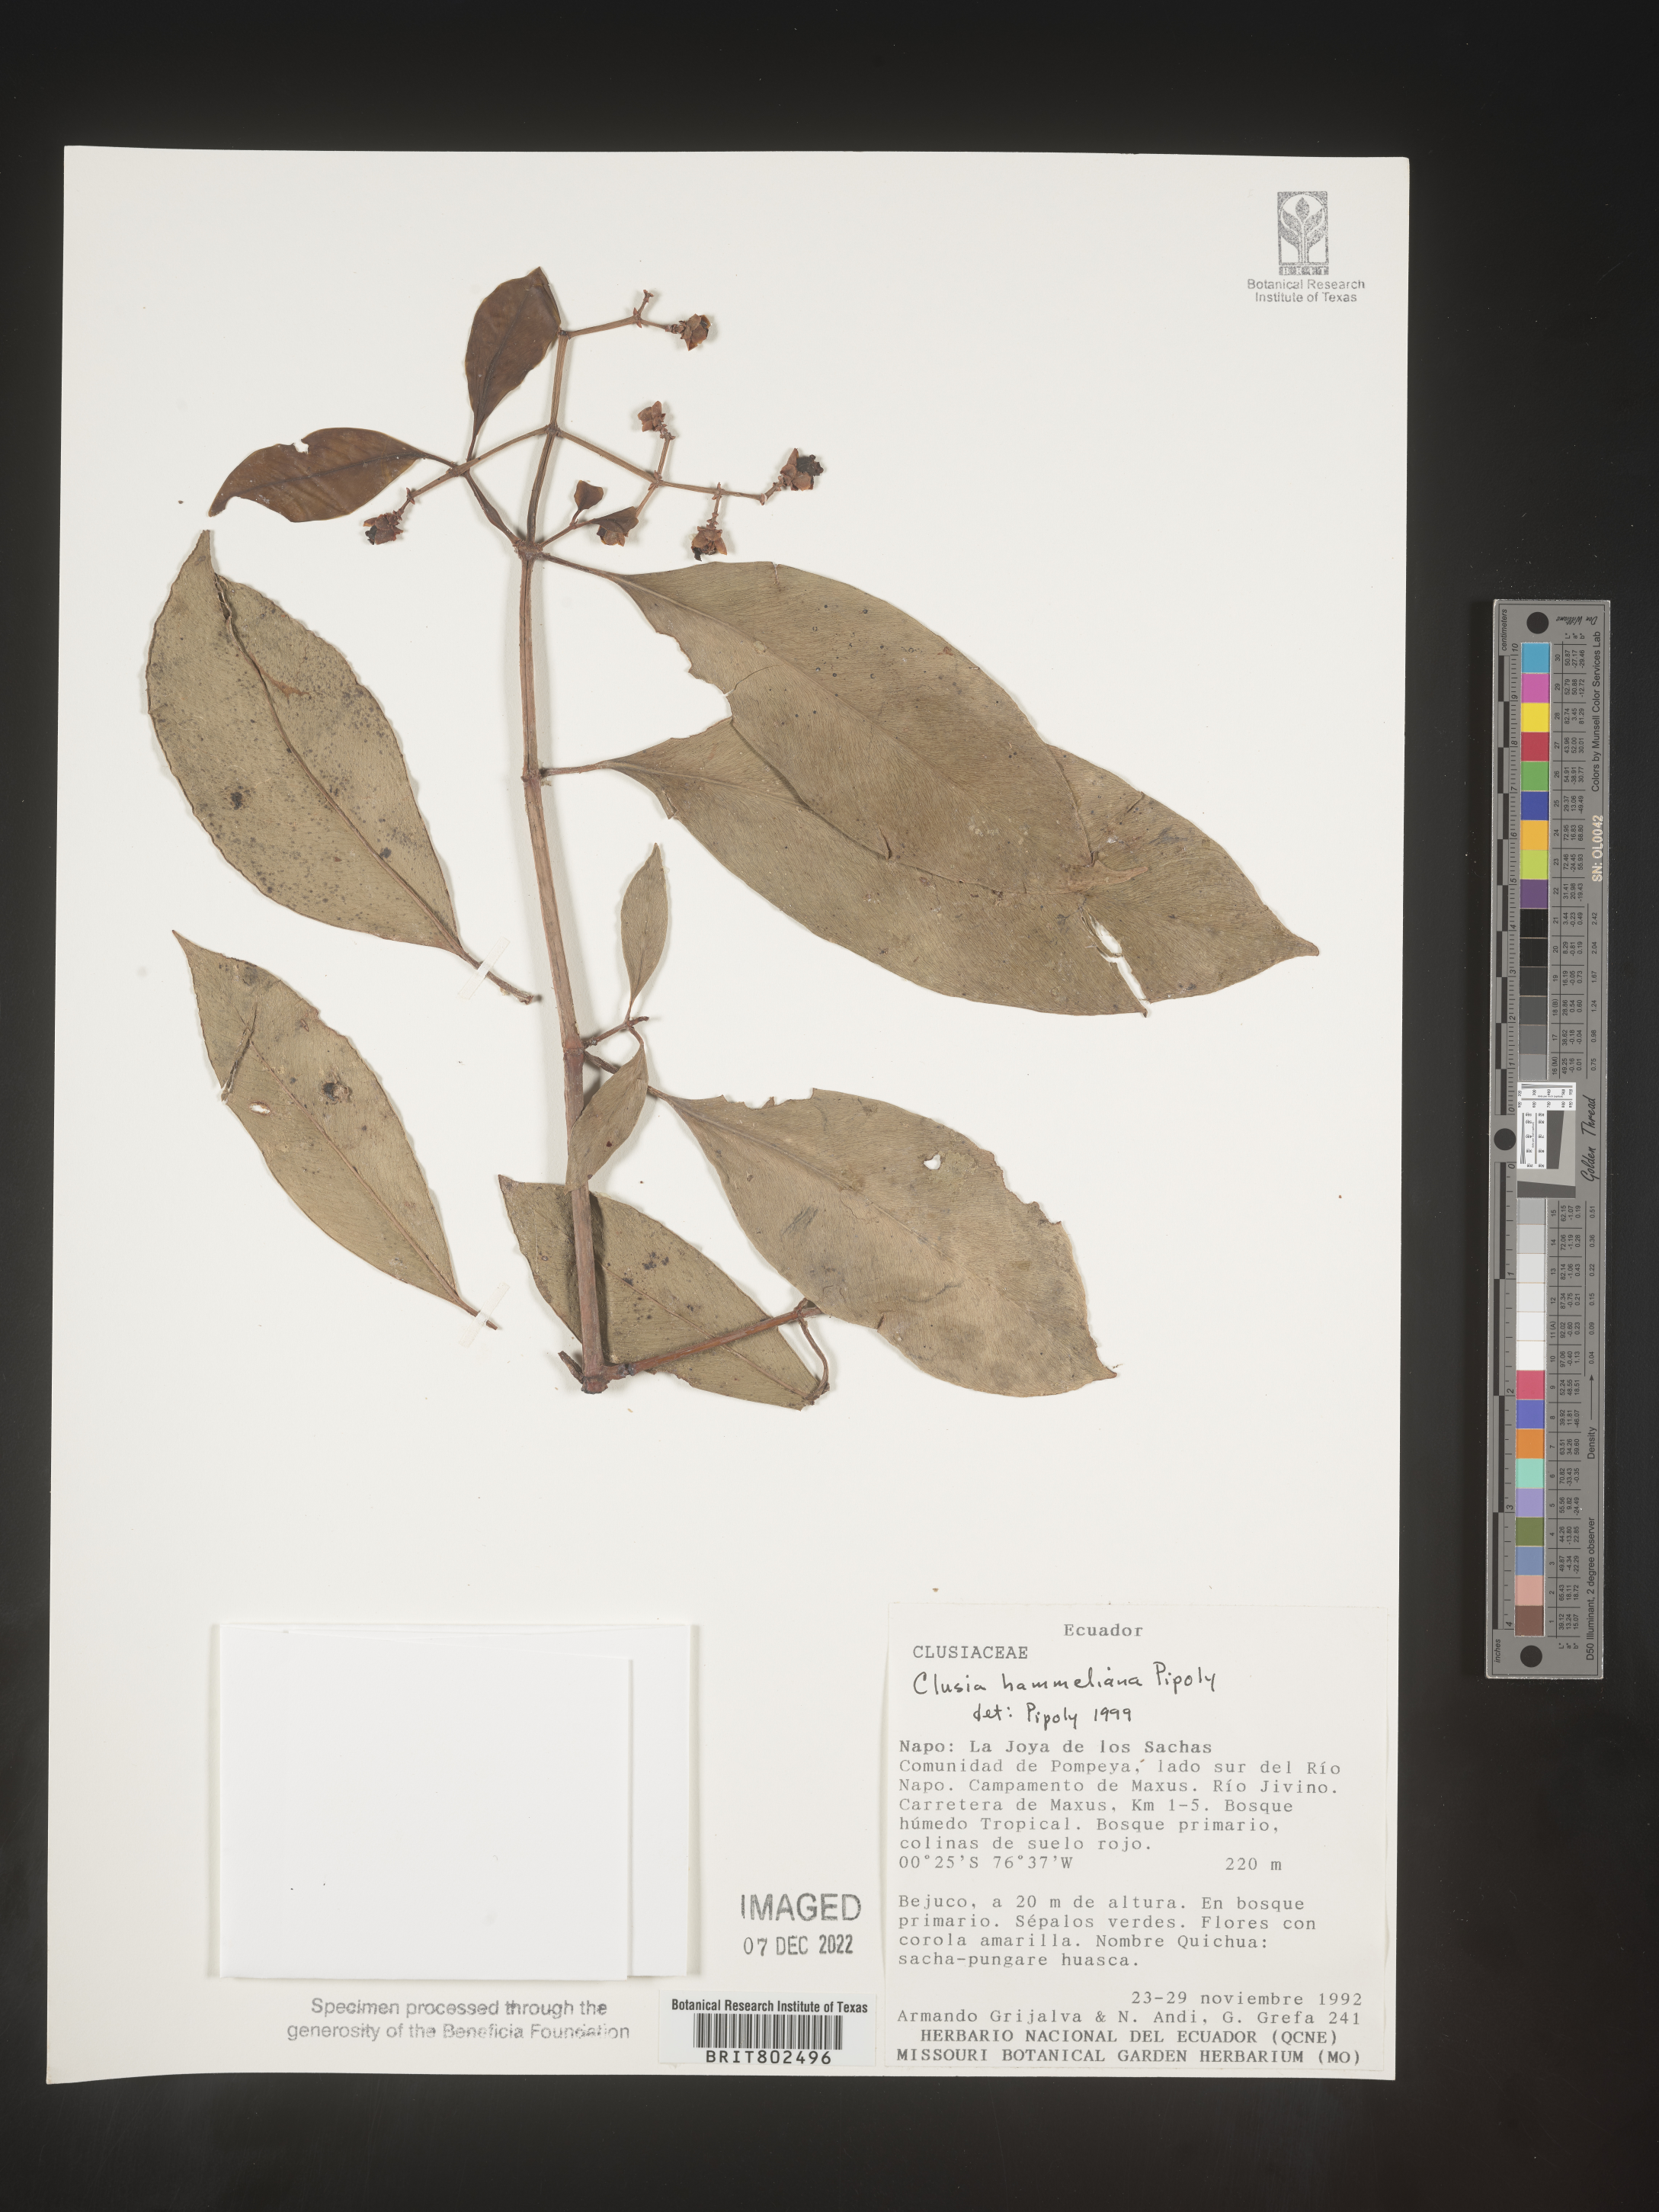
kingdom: Plantae
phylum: Tracheophyta
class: Magnoliopsida
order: Malpighiales
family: Clusiaceae
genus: Clusia
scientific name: Clusia hammeliana
